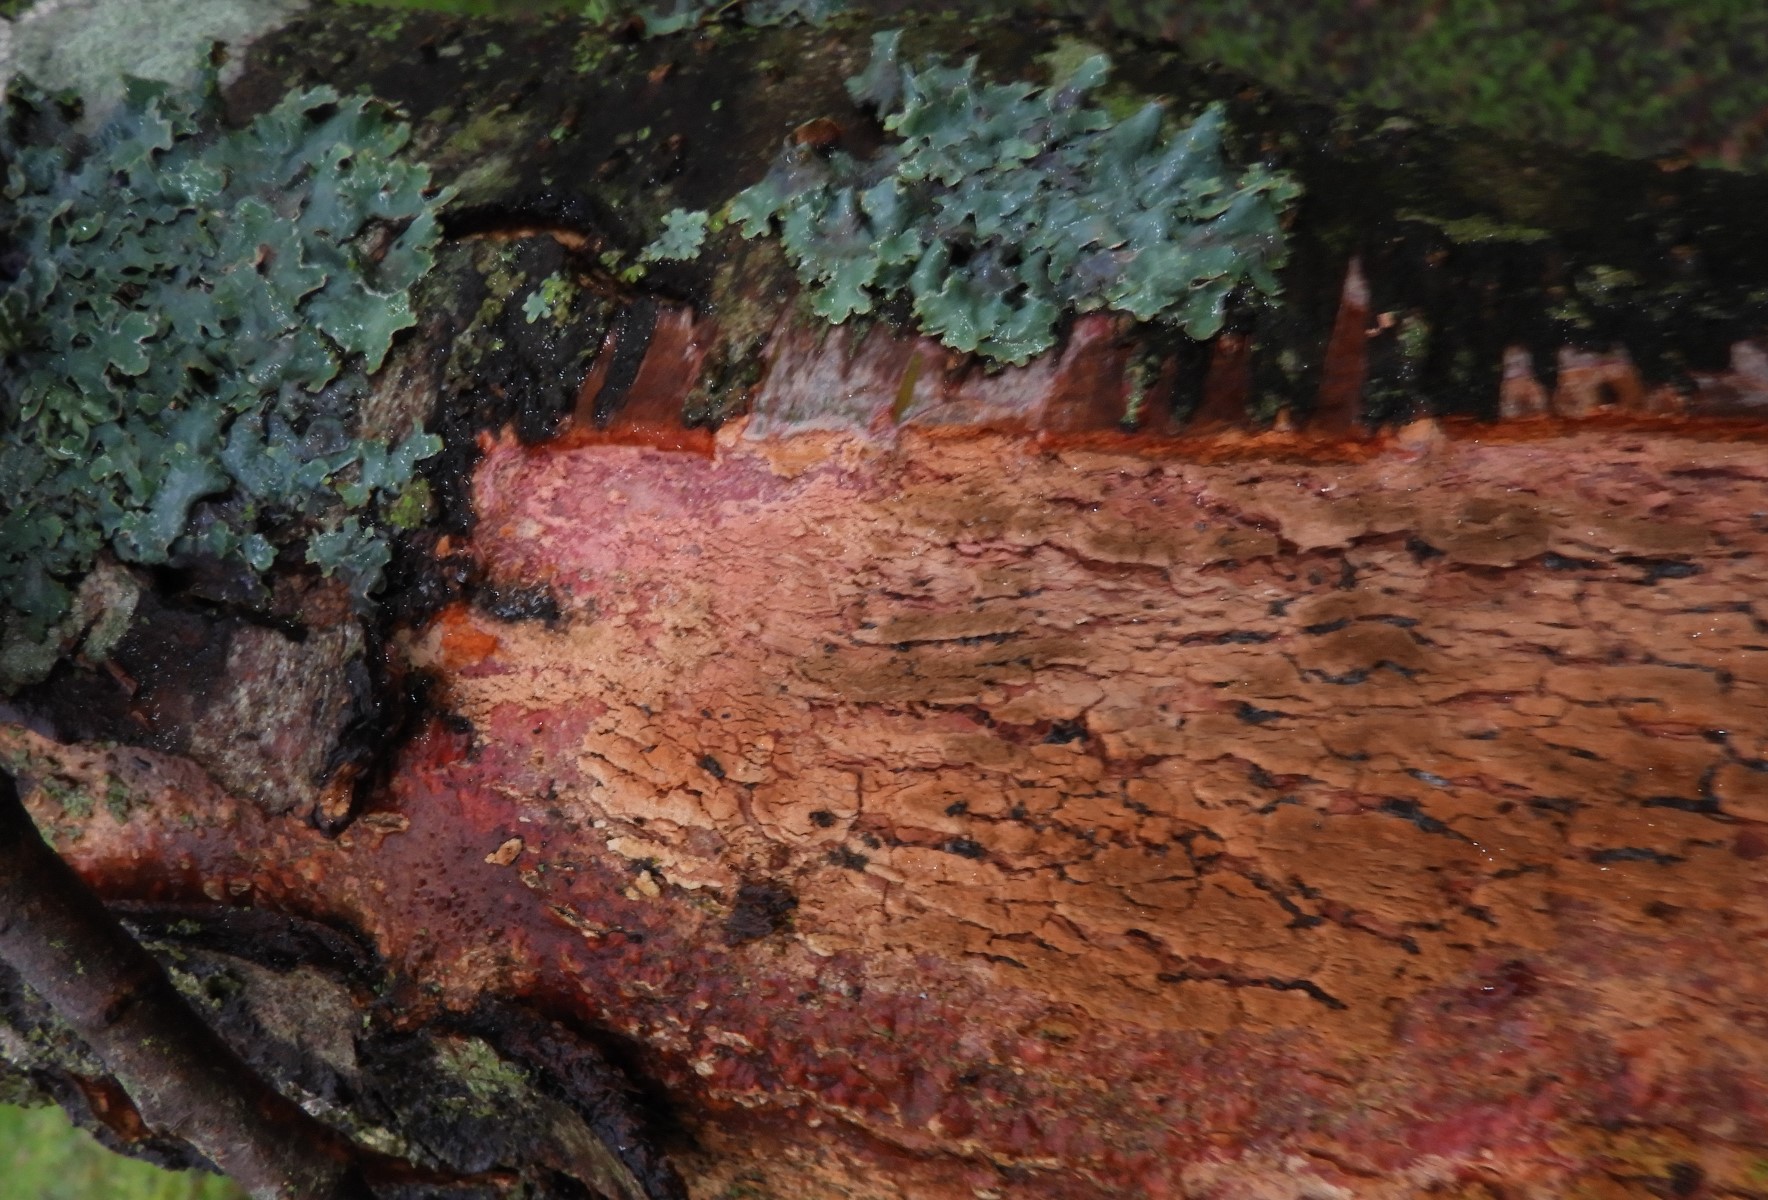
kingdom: Fungi
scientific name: Fungi
